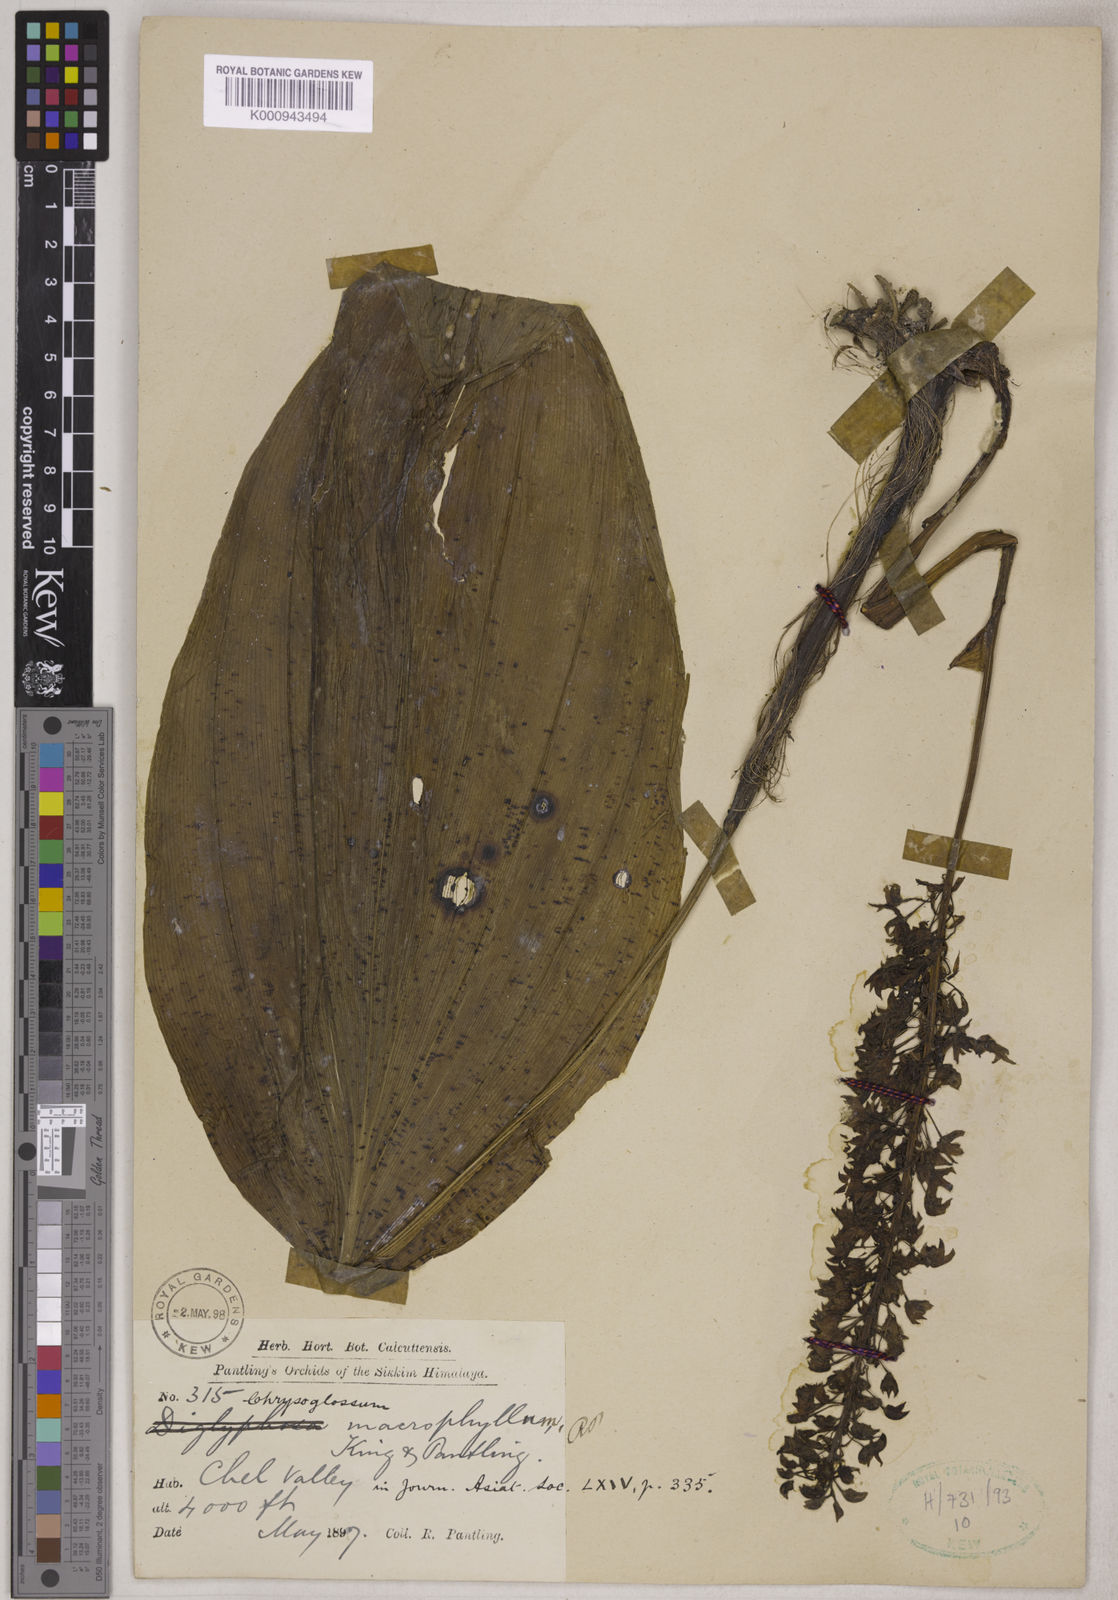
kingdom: Plantae
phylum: Tracheophyta
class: Liliopsida
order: Asparagales
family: Orchidaceae
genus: Diglyphosa
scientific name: Diglyphosa latifolia
